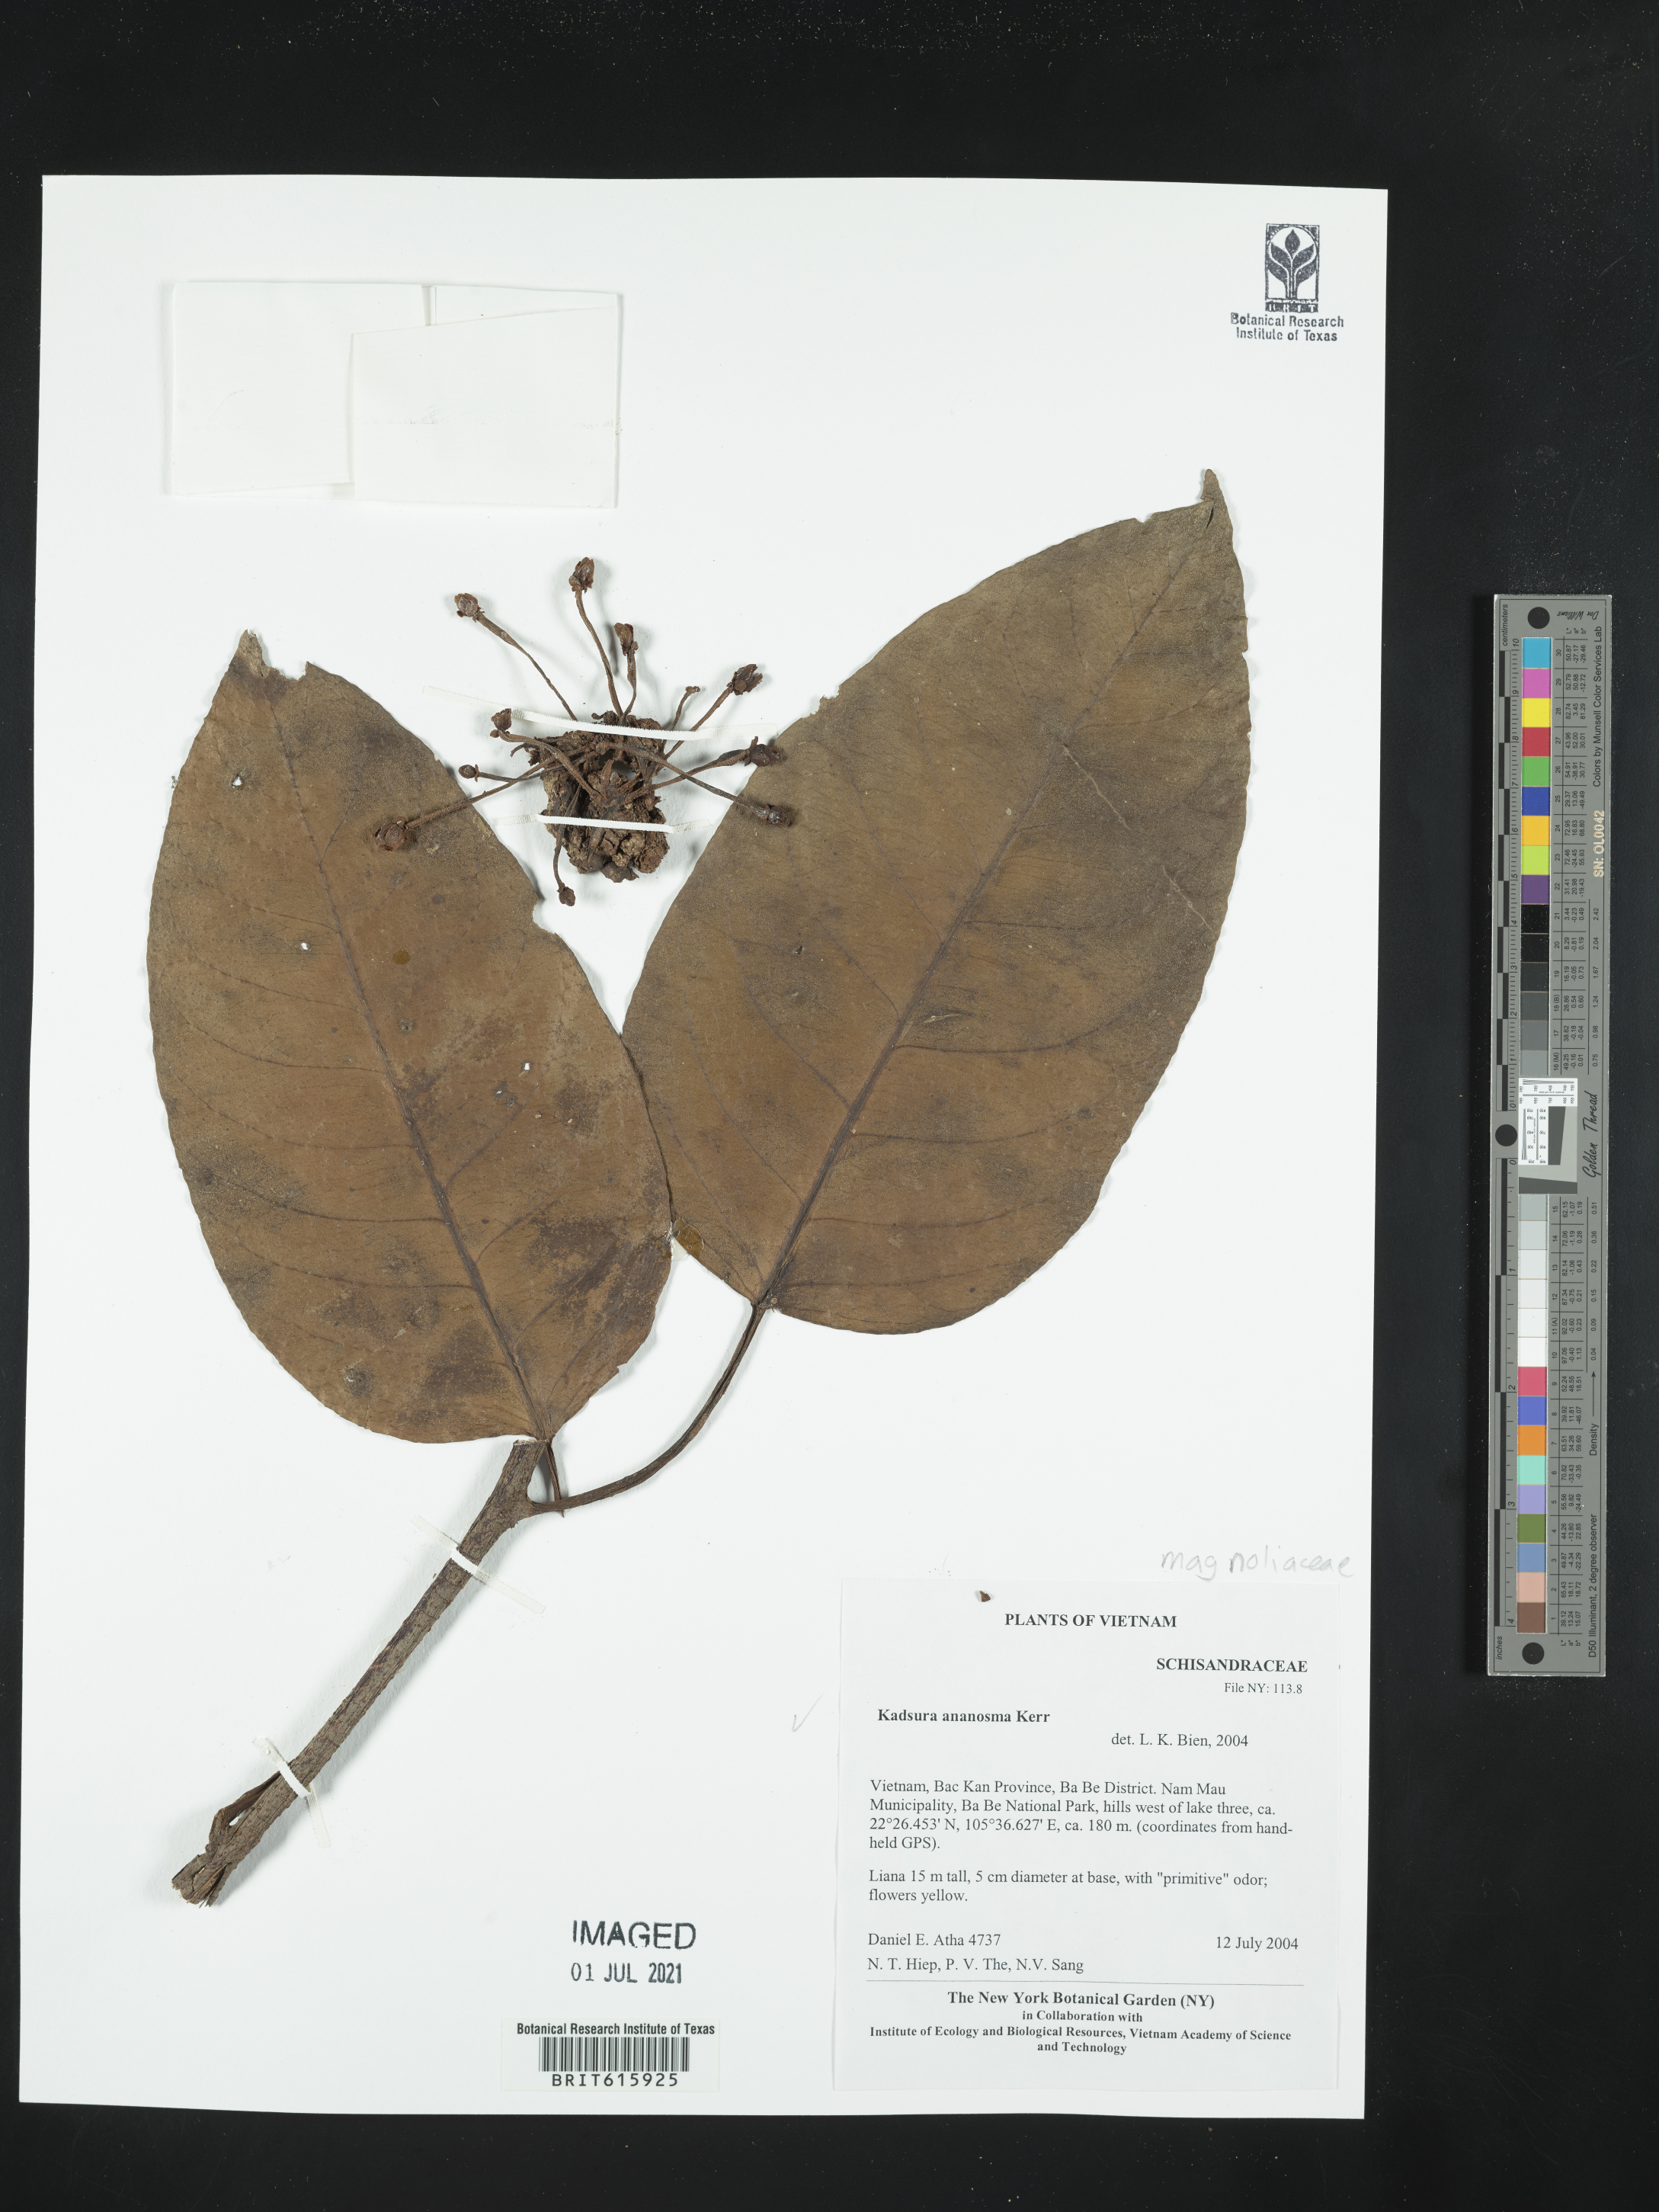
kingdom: Plantae
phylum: Tracheophyta
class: Magnoliopsida
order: Austrobaileyales
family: Schisandraceae
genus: Kadsura
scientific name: Kadsura coccinea
